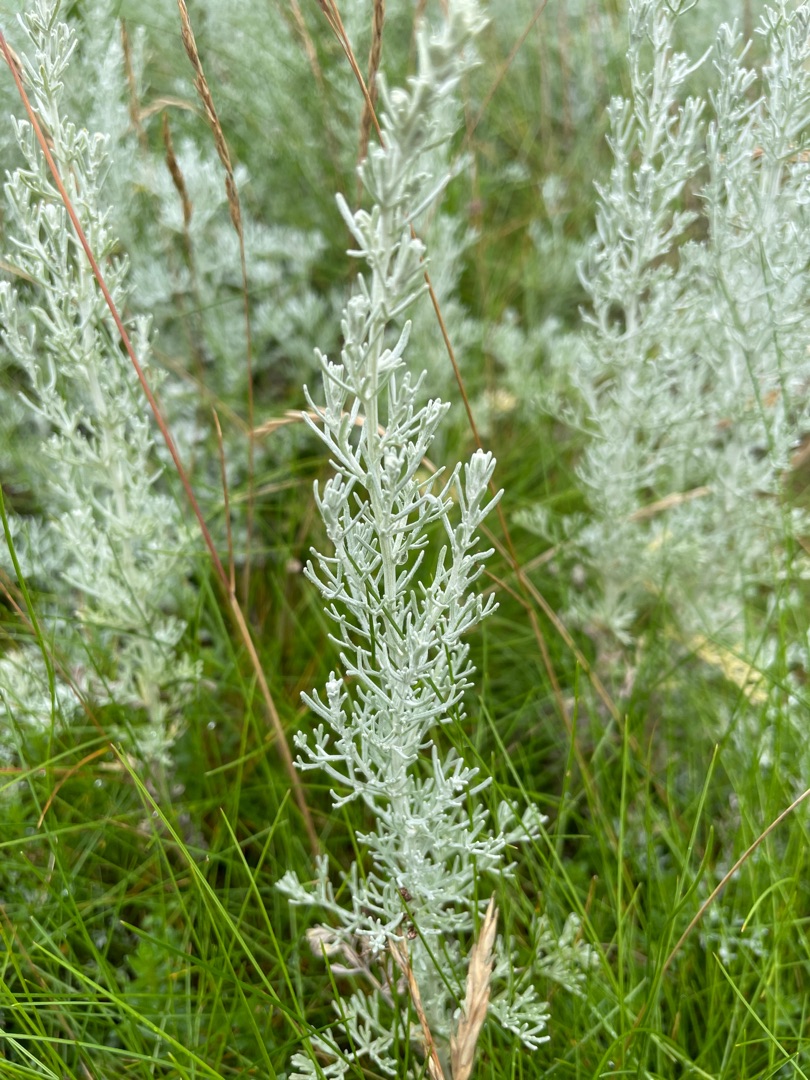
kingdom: Plantae
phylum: Tracheophyta
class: Magnoliopsida
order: Asterales
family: Asteraceae
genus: Artemisia
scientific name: Artemisia maritima
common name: Strandmalurt
